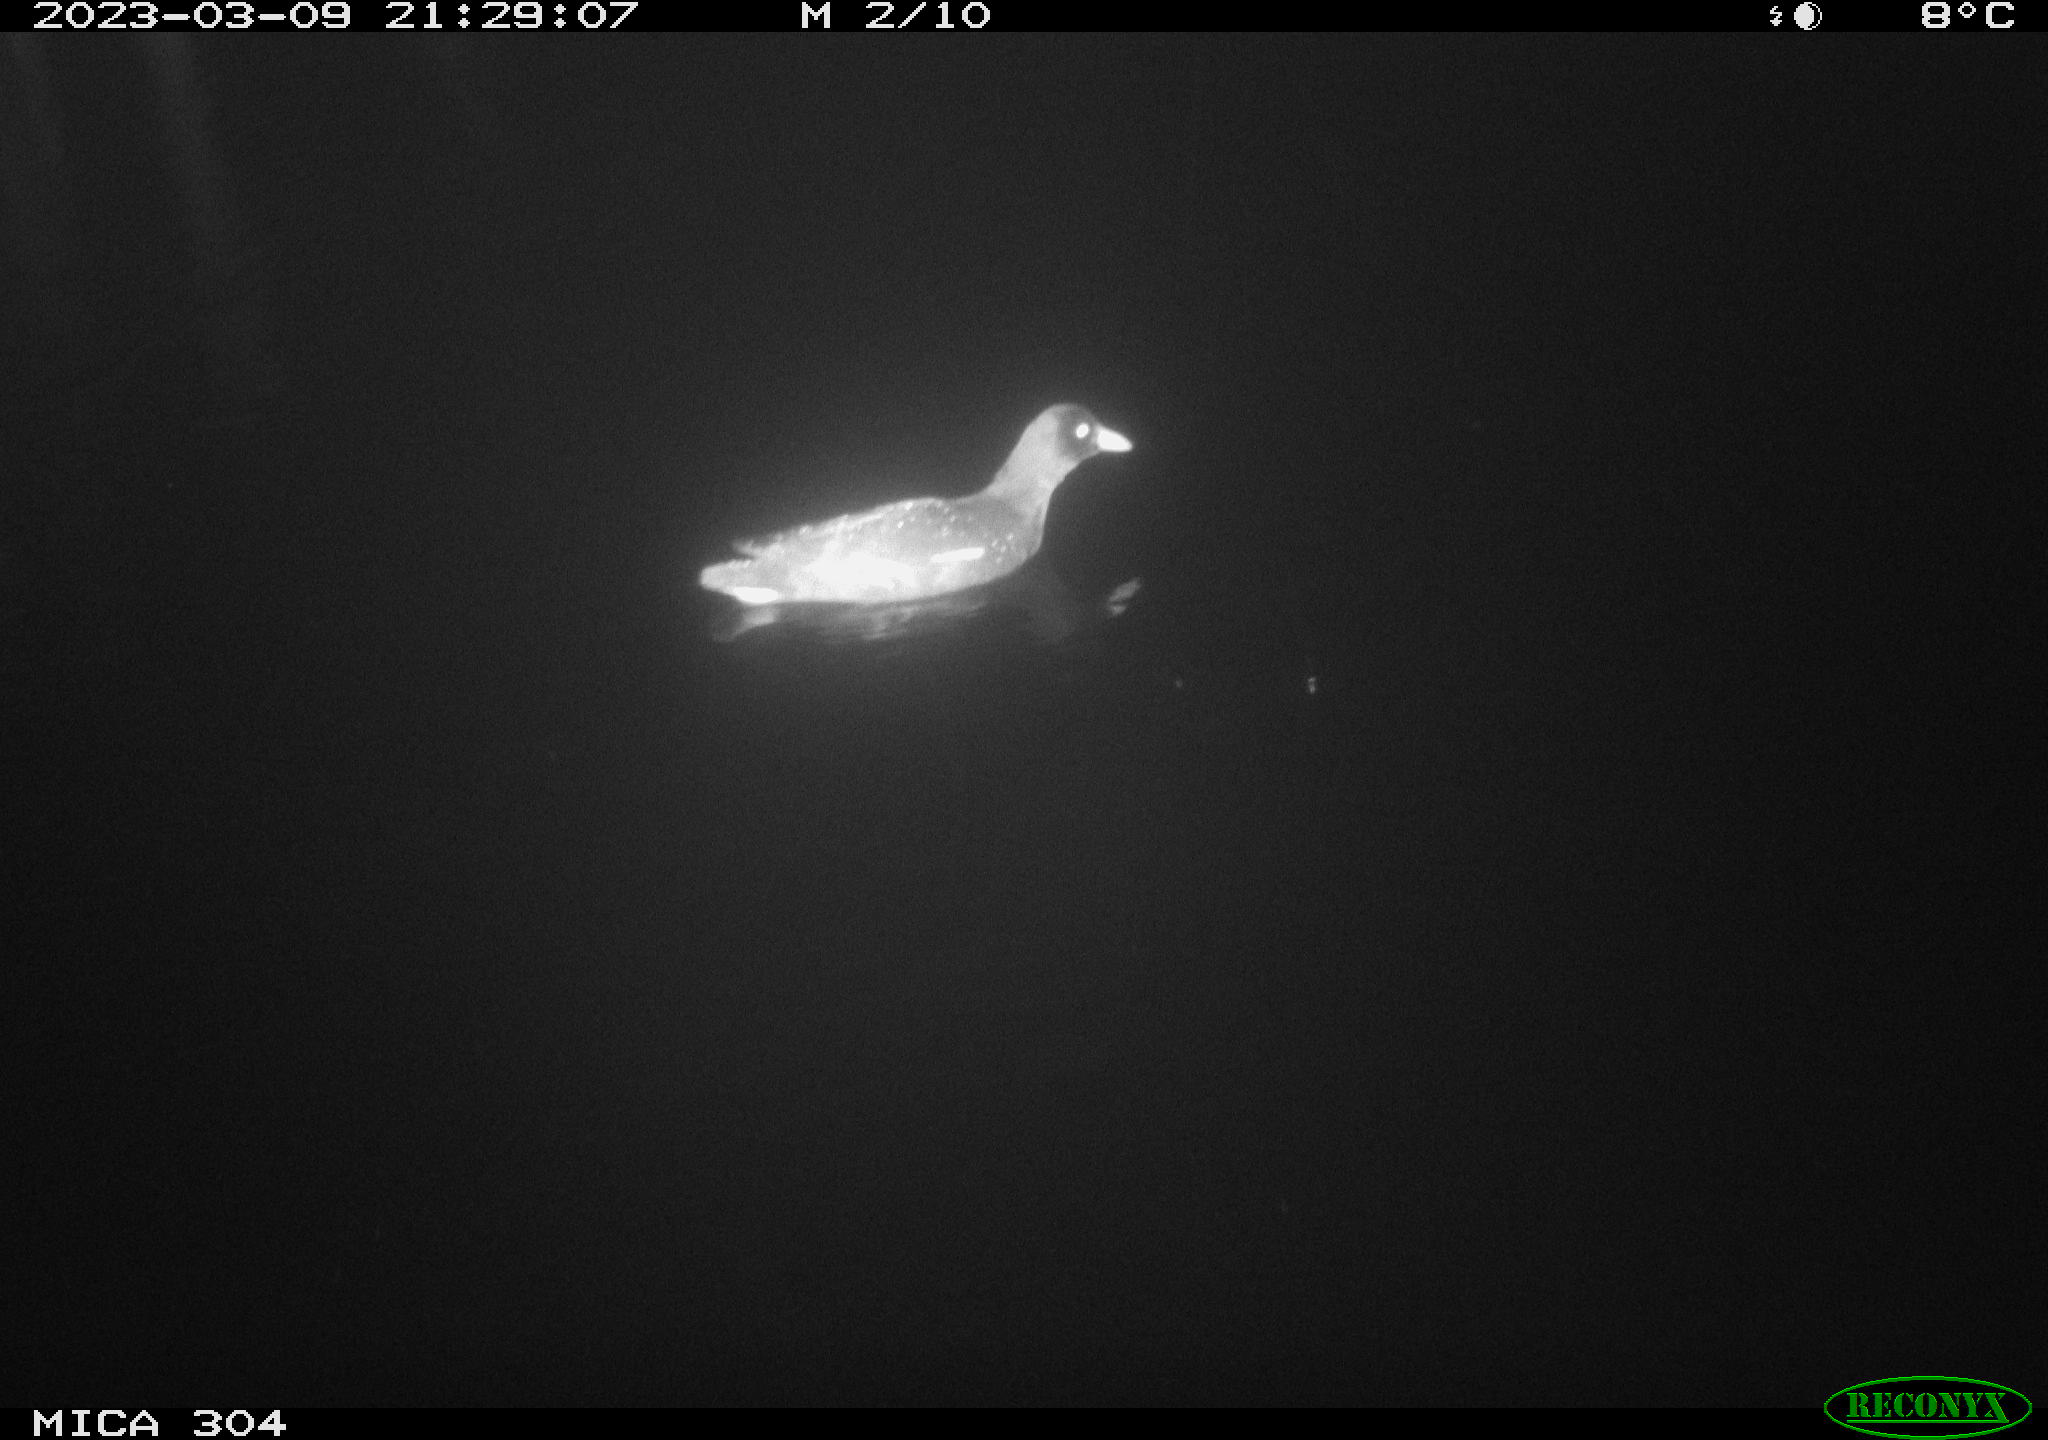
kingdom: Animalia
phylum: Chordata
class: Aves
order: Anseriformes
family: Anatidae
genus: Anas
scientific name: Anas
